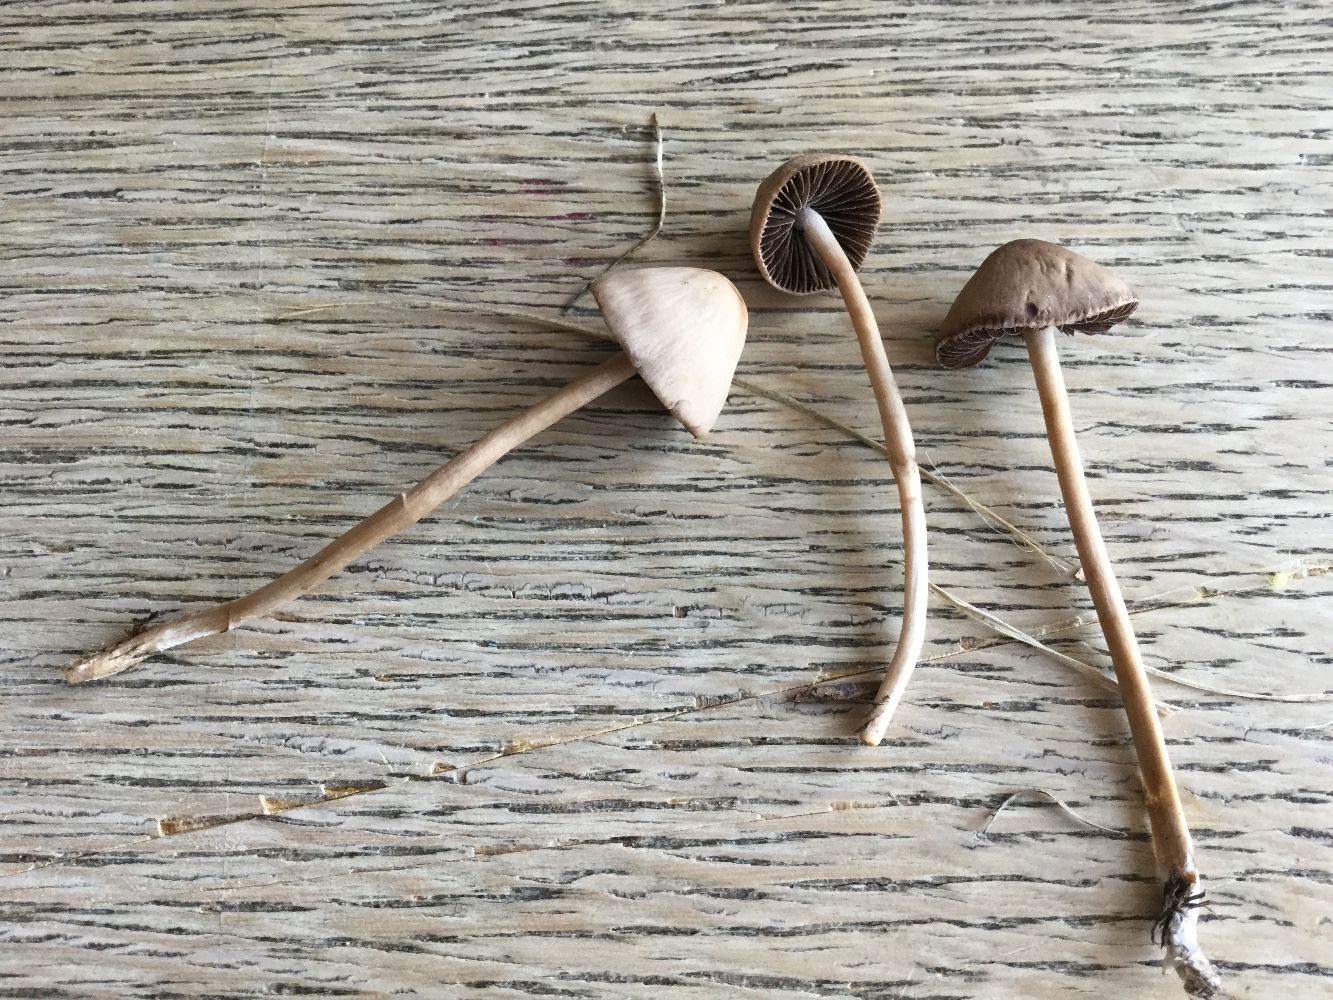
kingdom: Fungi
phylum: Basidiomycota
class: Agaricomycetes
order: Agaricales
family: Bolbitiaceae
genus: Panaeolina
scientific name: Panaeolina foenisecii
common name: høslætsvamp
